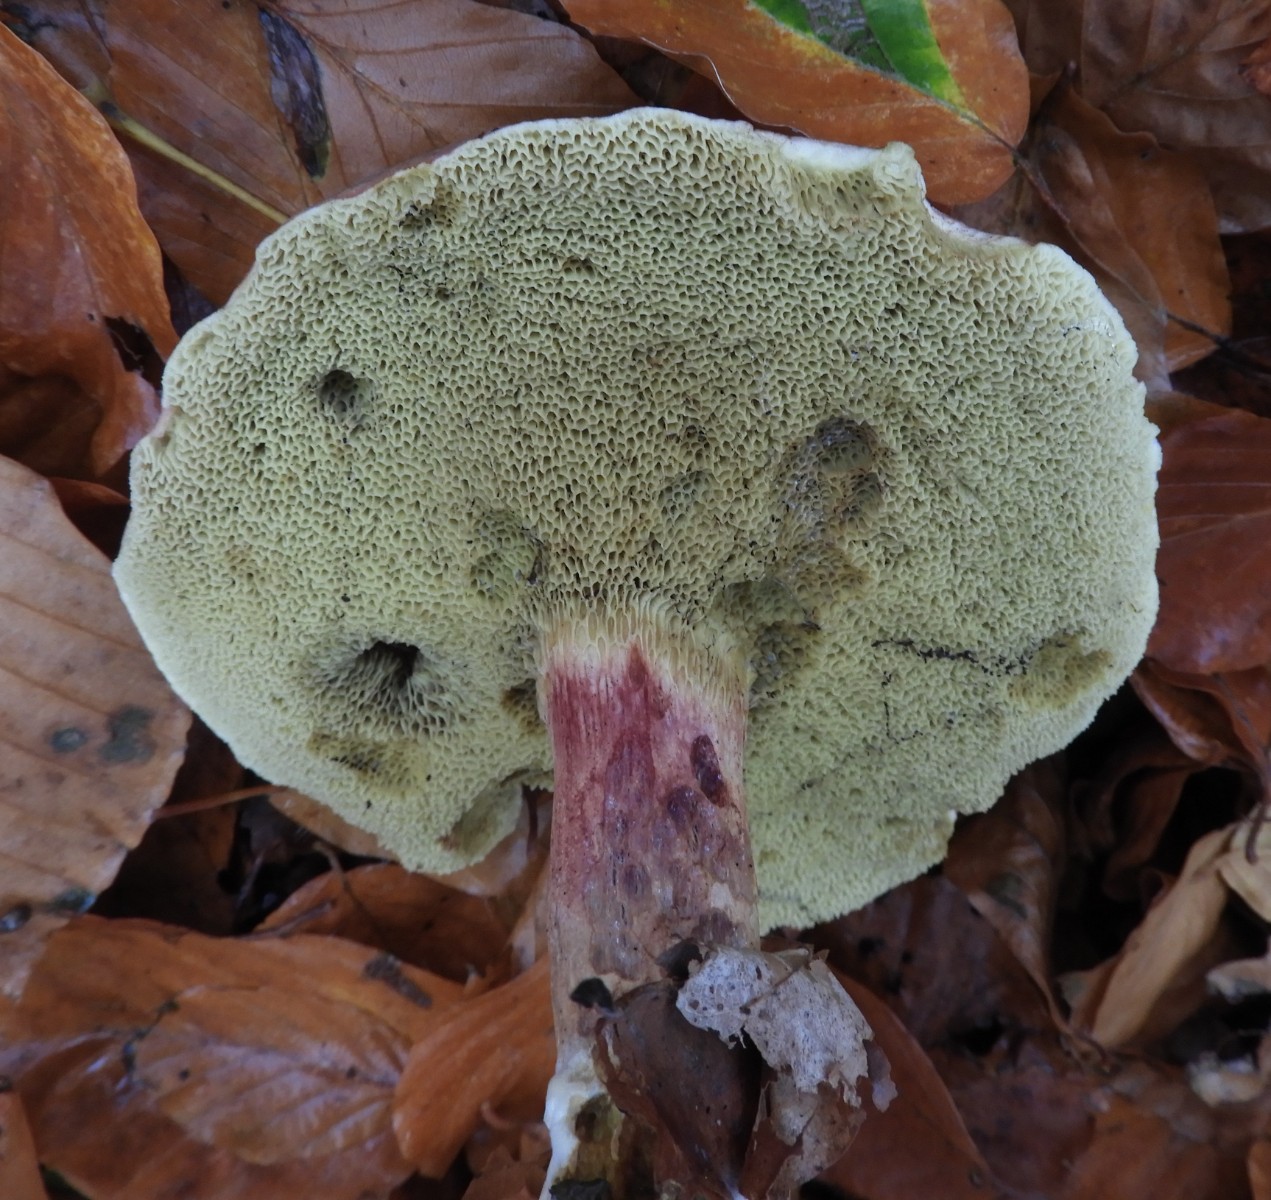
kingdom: Fungi
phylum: Basidiomycota
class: Agaricomycetes
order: Boletales
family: Boletaceae
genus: Xerocomellus
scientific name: Xerocomellus pruinatus
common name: dugget rørhat
